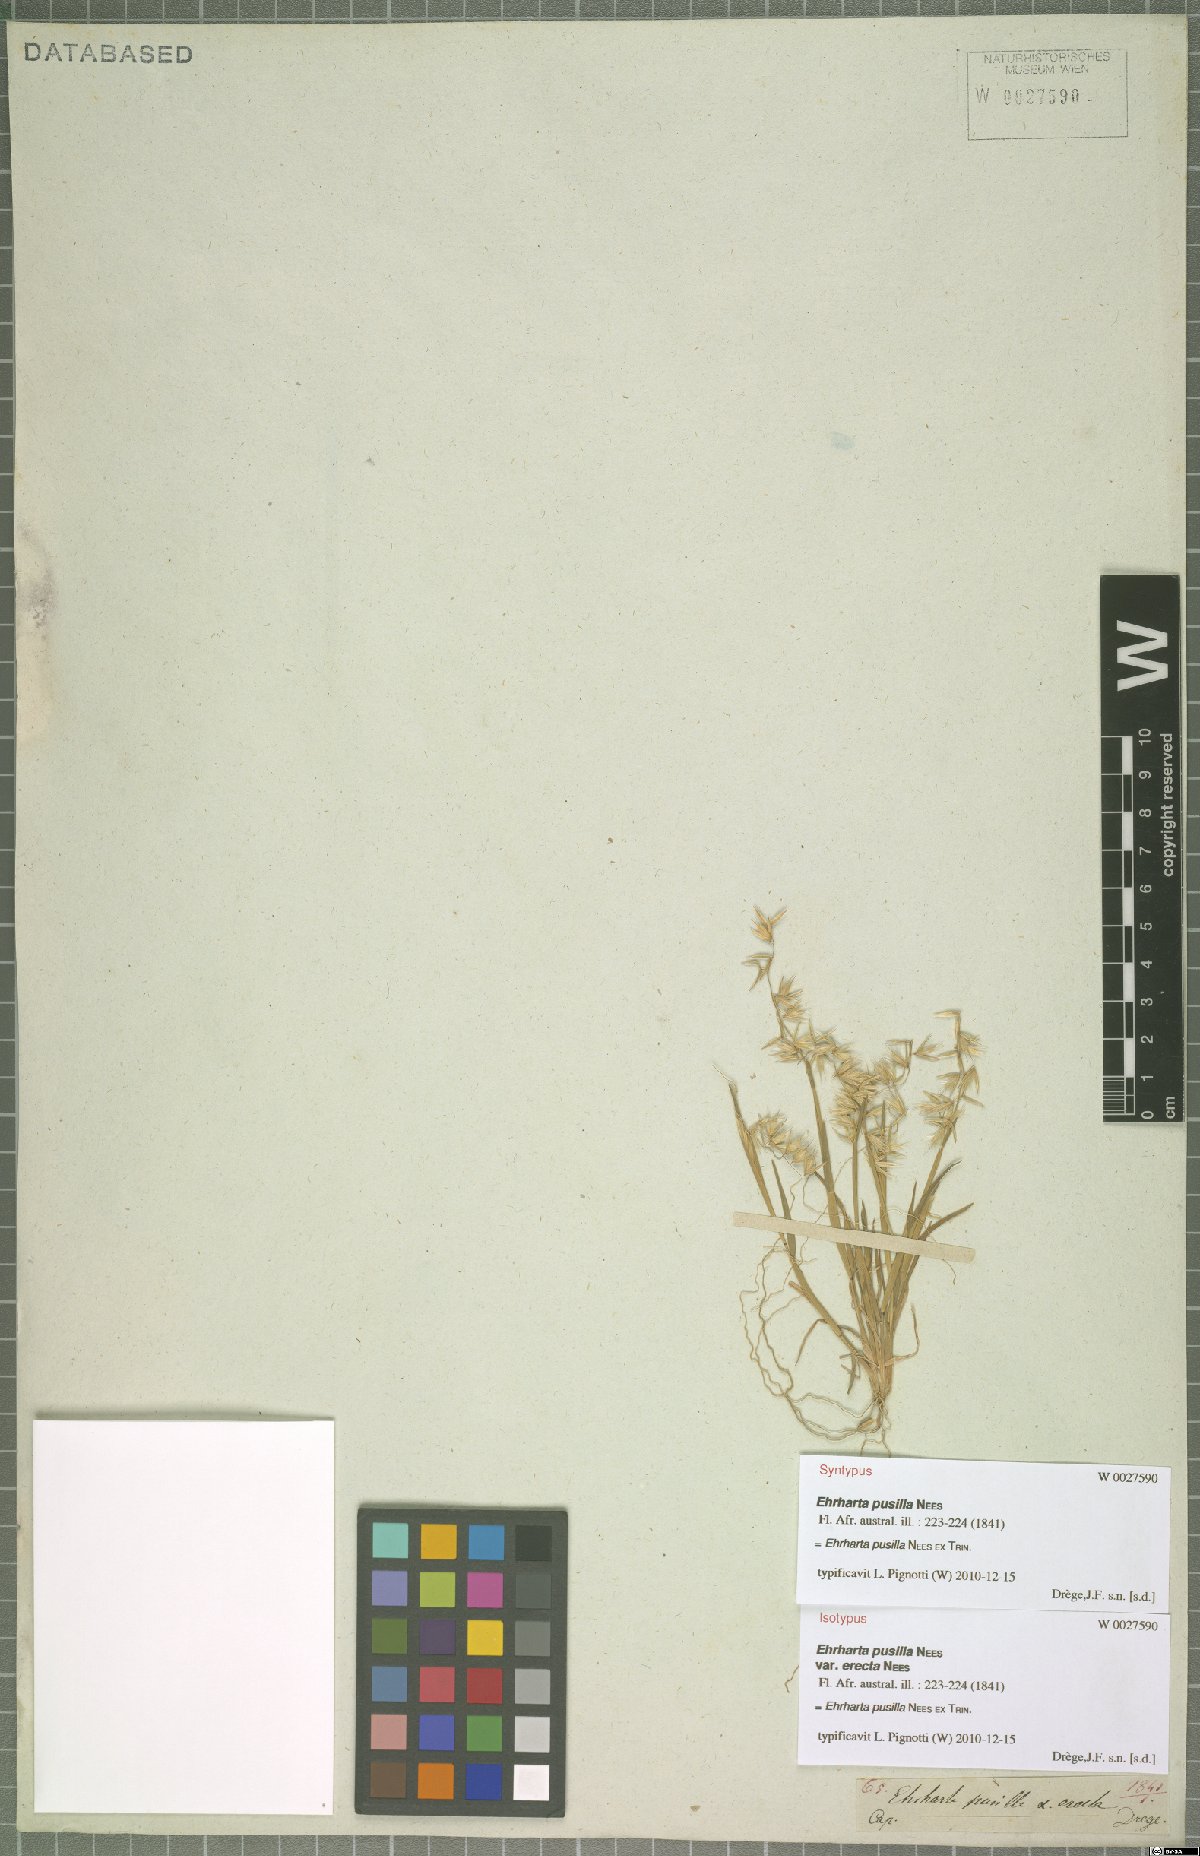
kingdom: Plantae
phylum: Tracheophyta
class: Liliopsida
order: Poales
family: Poaceae
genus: Ehrharta
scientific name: Ehrharta pusilla
